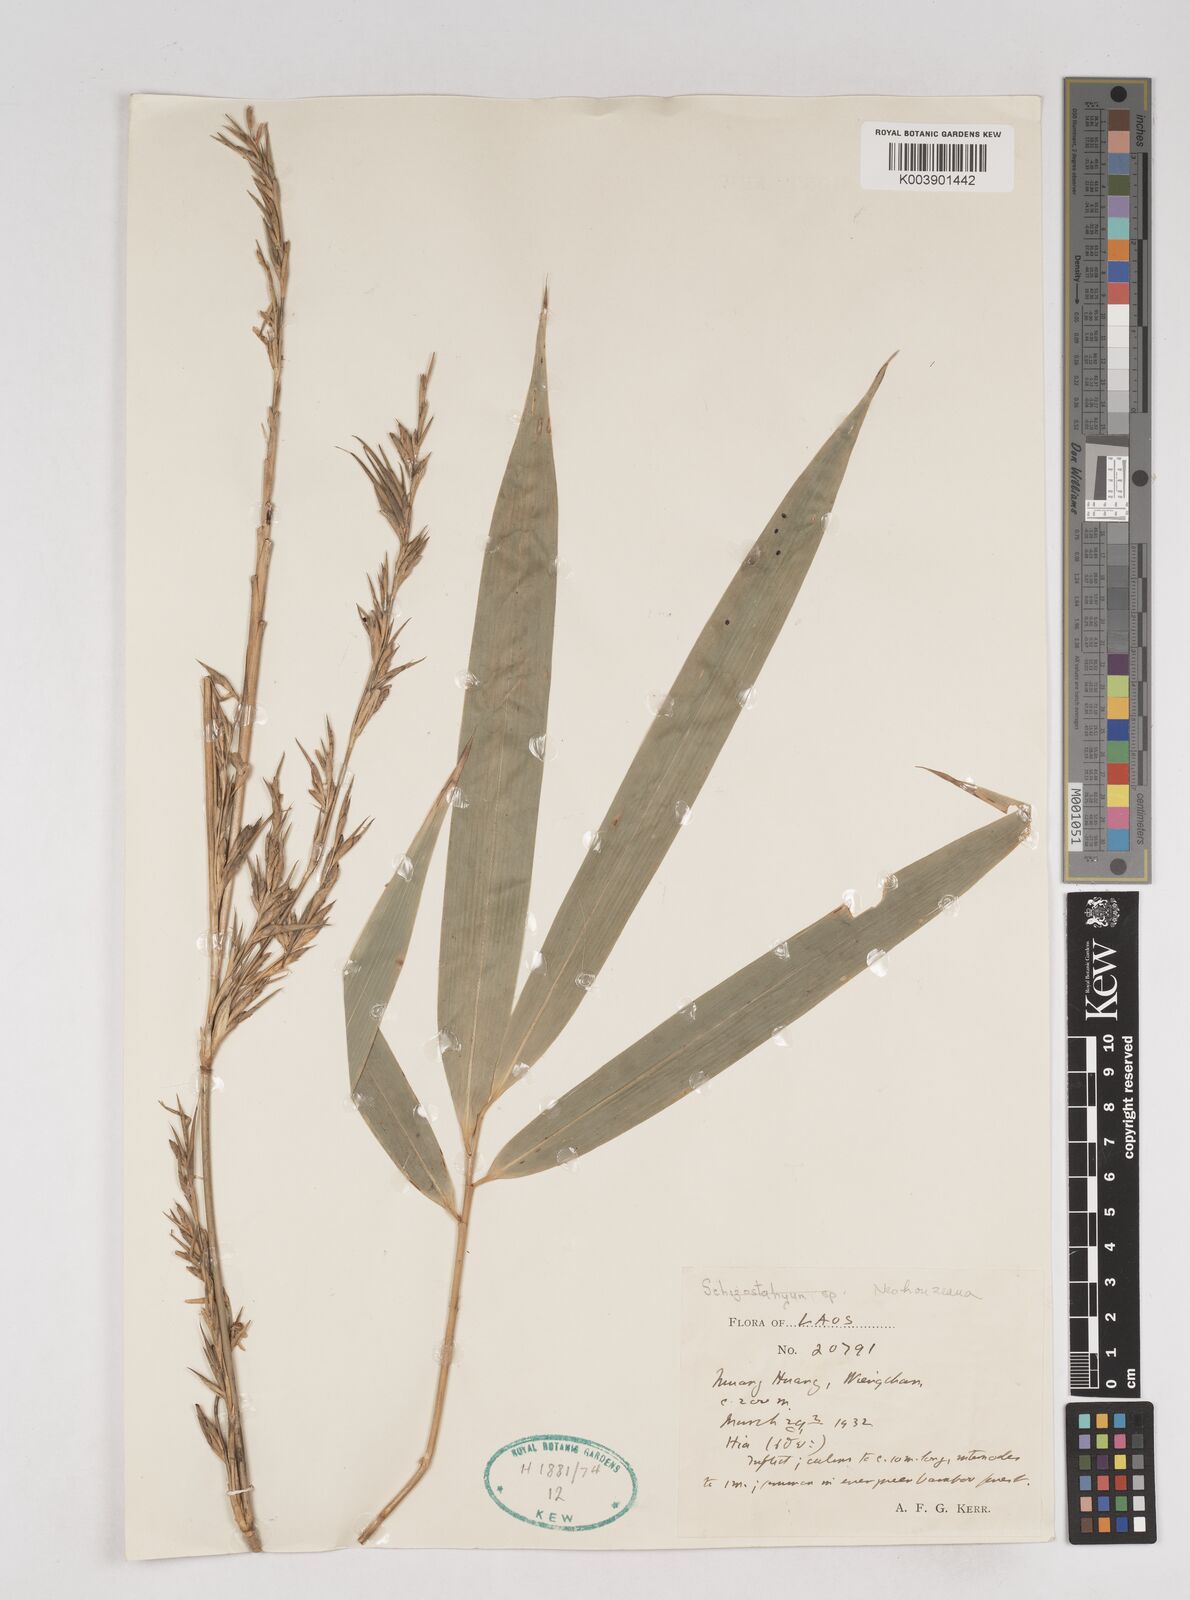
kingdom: Plantae
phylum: Tracheophyta
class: Liliopsida
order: Poales
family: Poaceae
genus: Schizostachyum
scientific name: Schizostachyum
